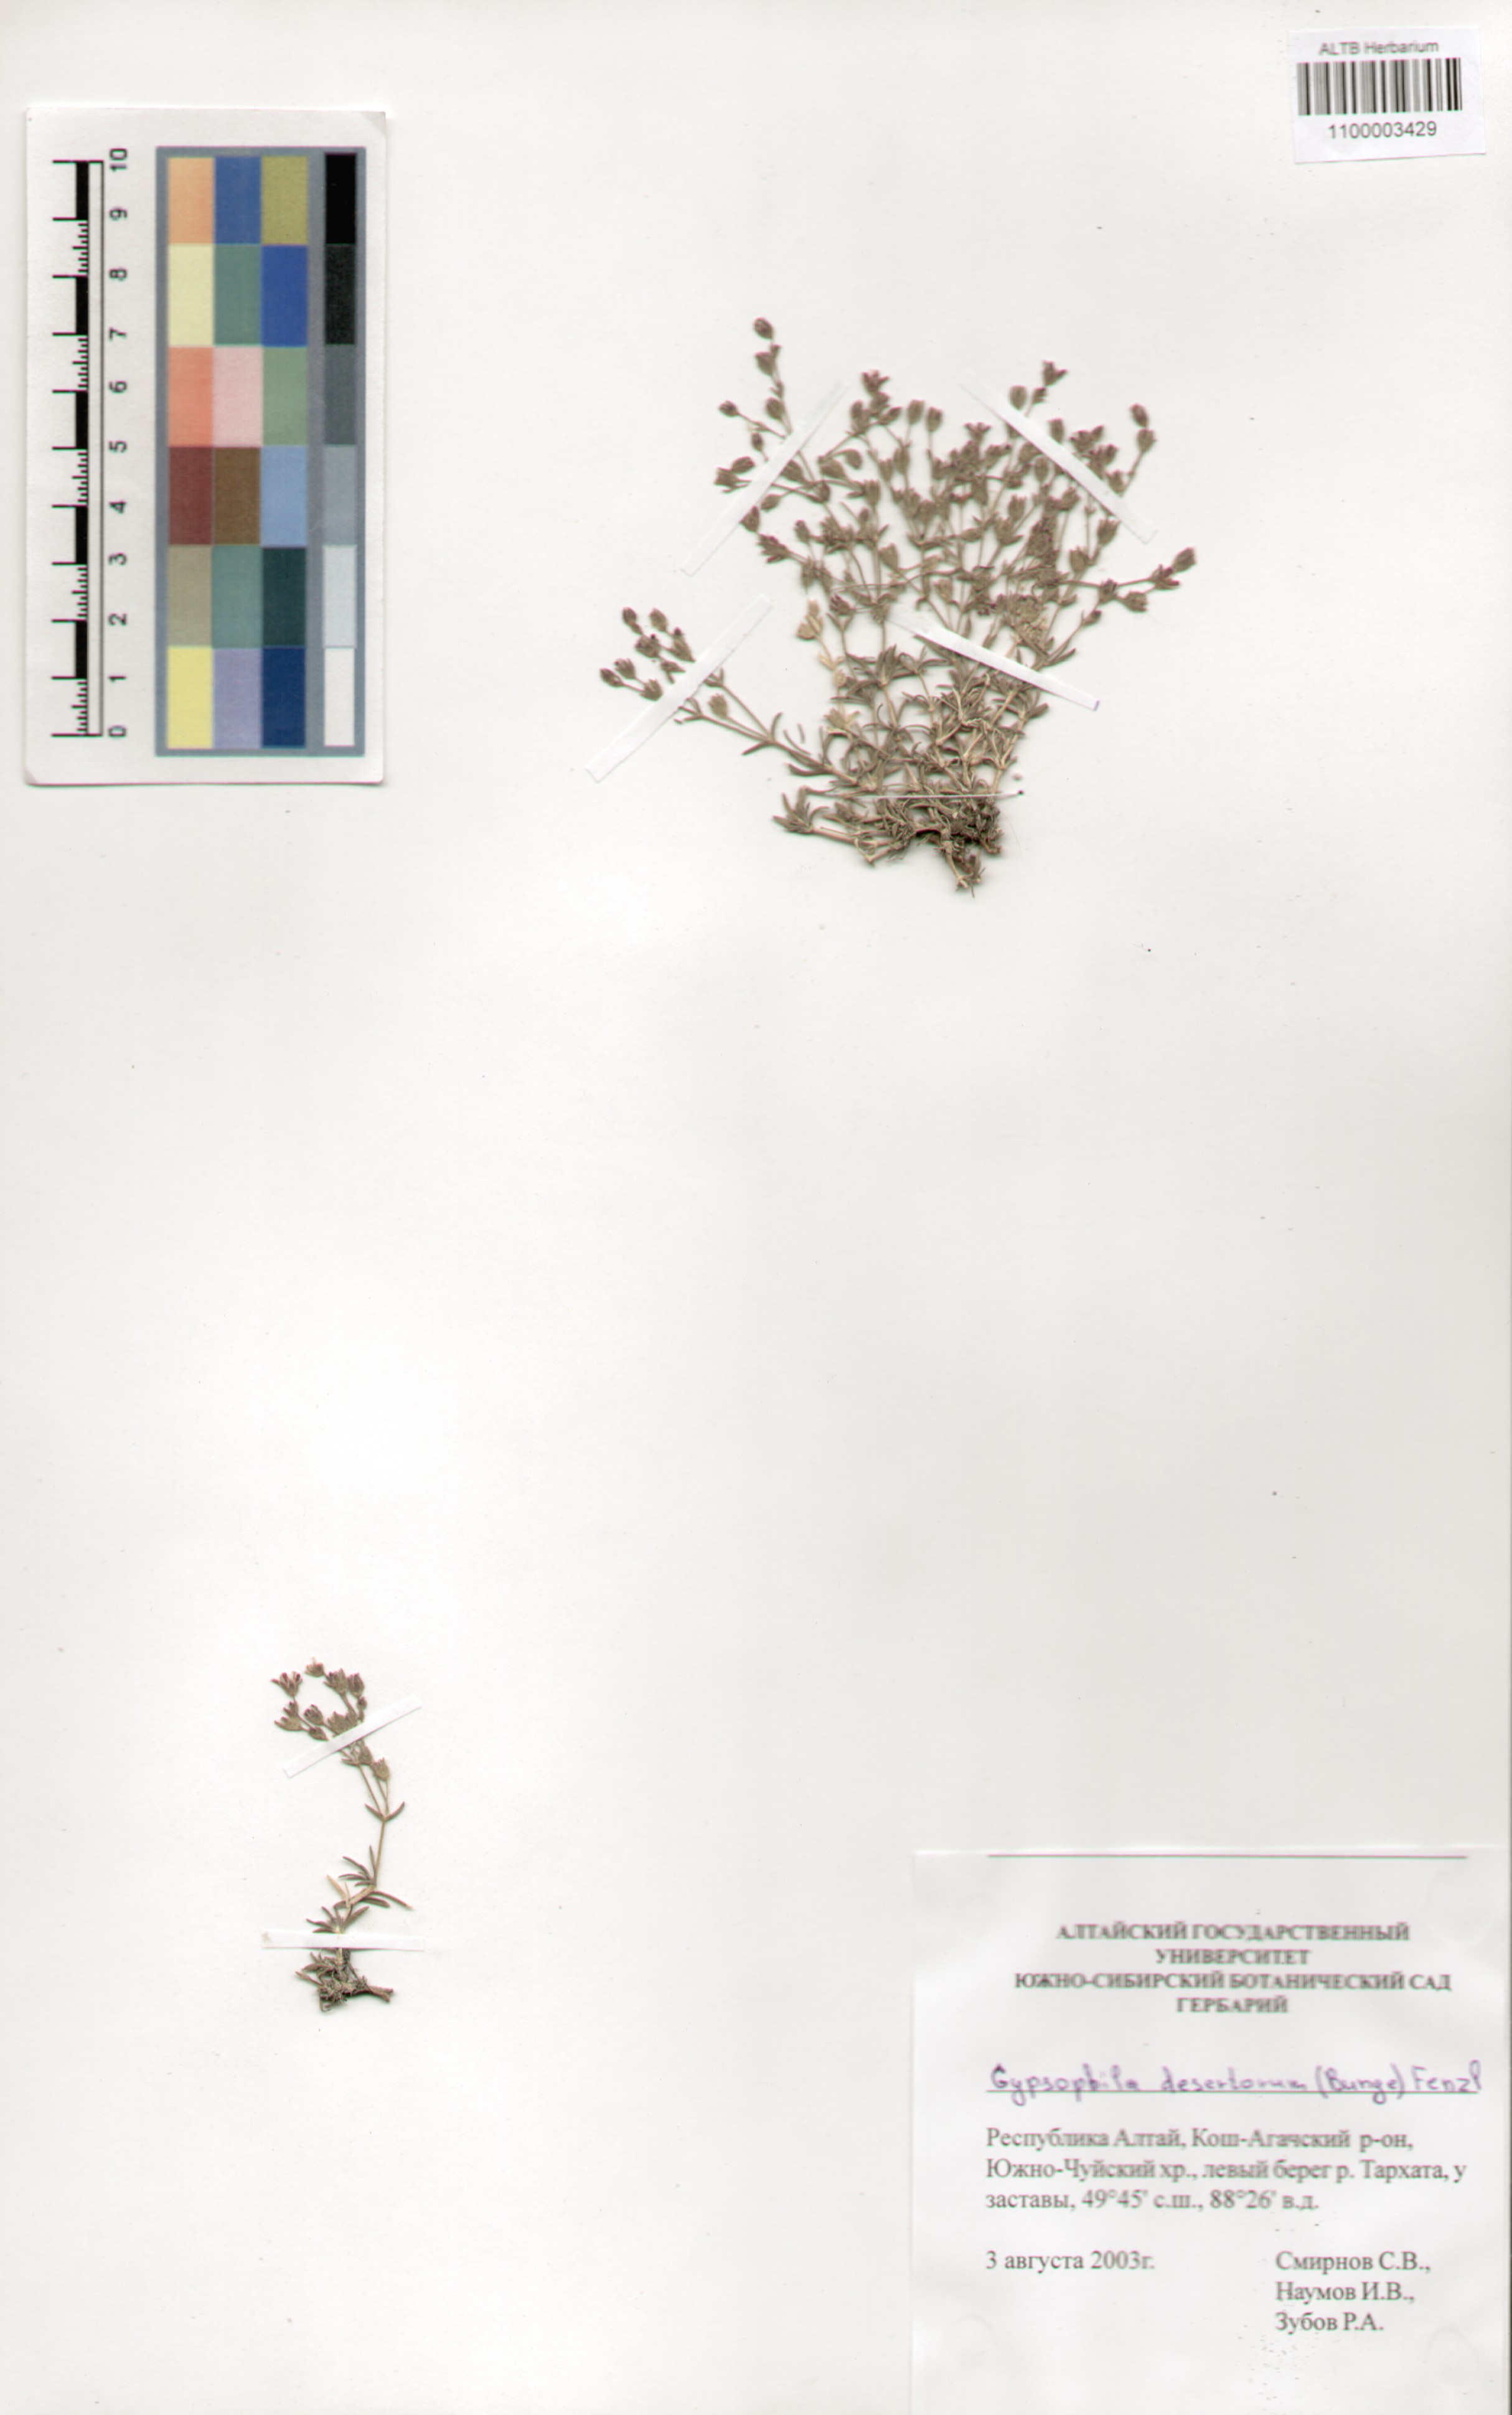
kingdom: Plantae
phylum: Tracheophyta
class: Magnoliopsida
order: Caryophyllales
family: Caryophyllaceae
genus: Heterochroa
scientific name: Heterochroa desertorum
